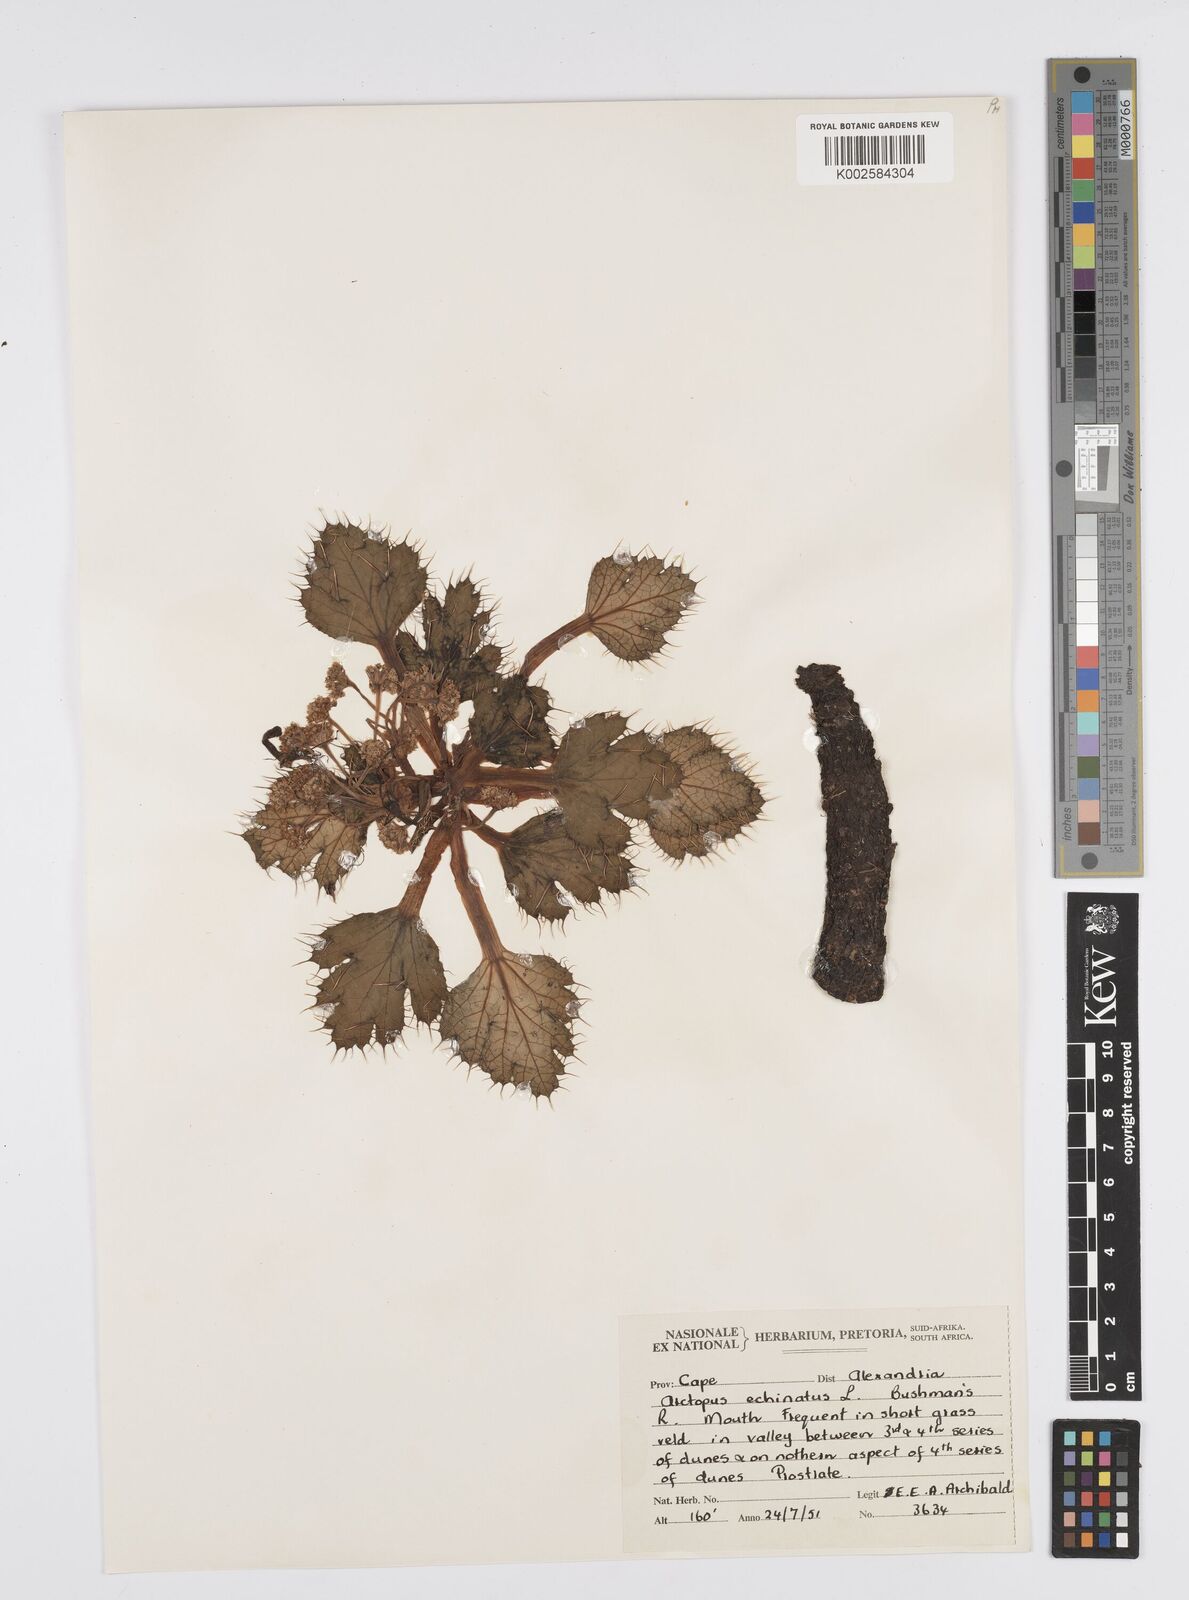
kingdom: Plantae
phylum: Tracheophyta
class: Magnoliopsida
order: Apiales
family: Apiaceae
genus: Arctopus
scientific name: Arctopus echinatus
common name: Platdoring
